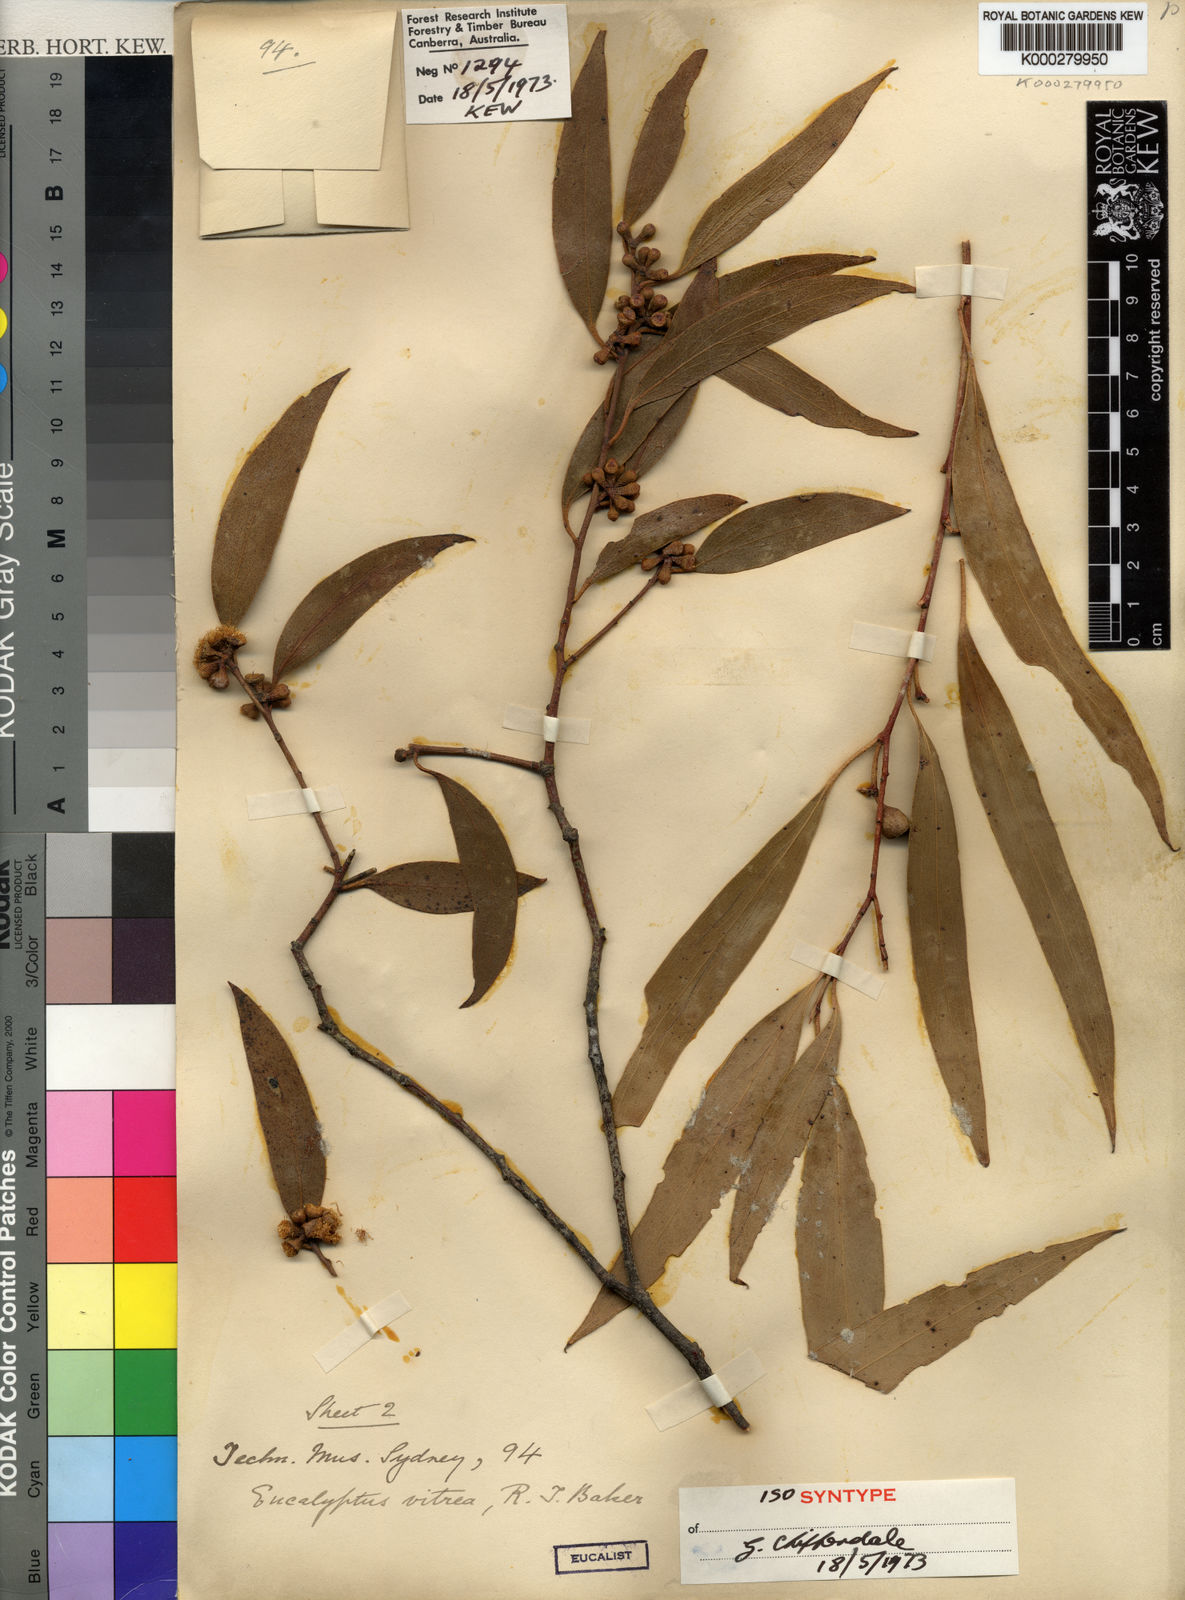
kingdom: Plantae
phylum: Tracheophyta
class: Magnoliopsida
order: Myrtales
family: Myrtaceae
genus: Eucalyptus
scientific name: Eucalyptus vitrea
